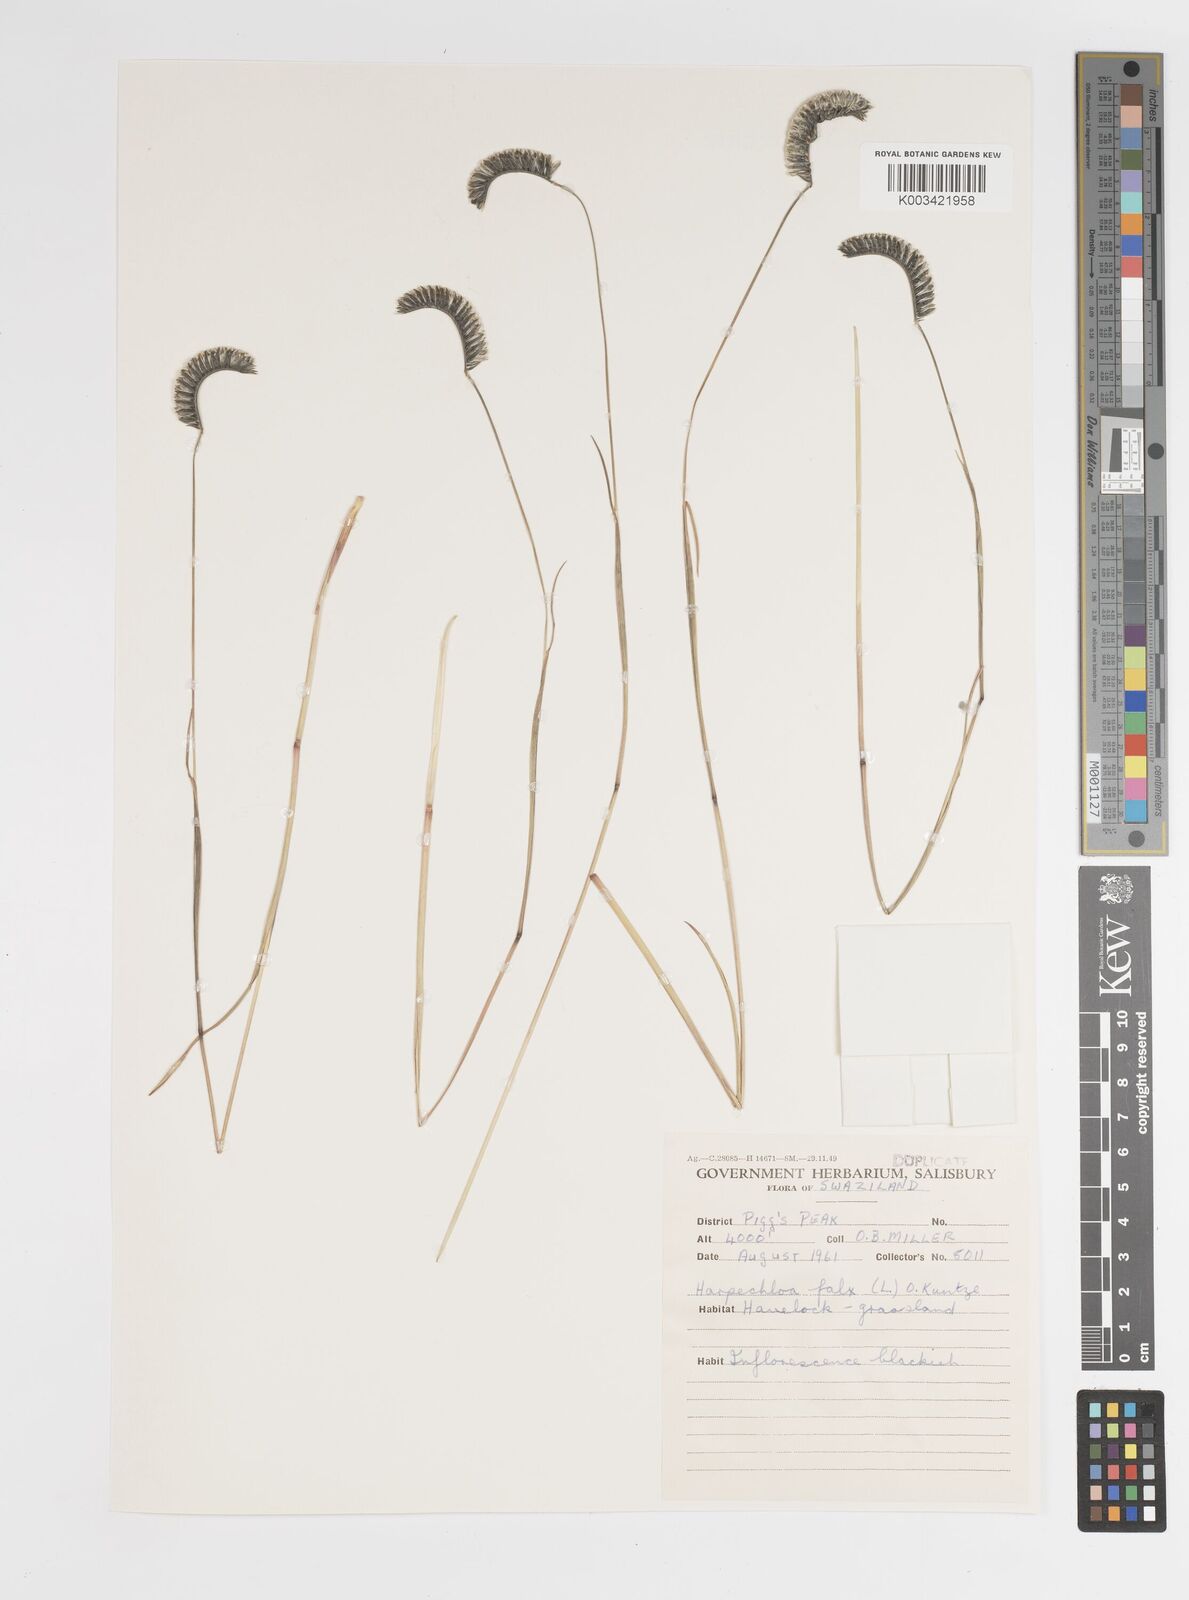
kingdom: Plantae
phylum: Tracheophyta
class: Liliopsida
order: Poales
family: Poaceae
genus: Harpochloa
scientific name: Harpochloa falx
